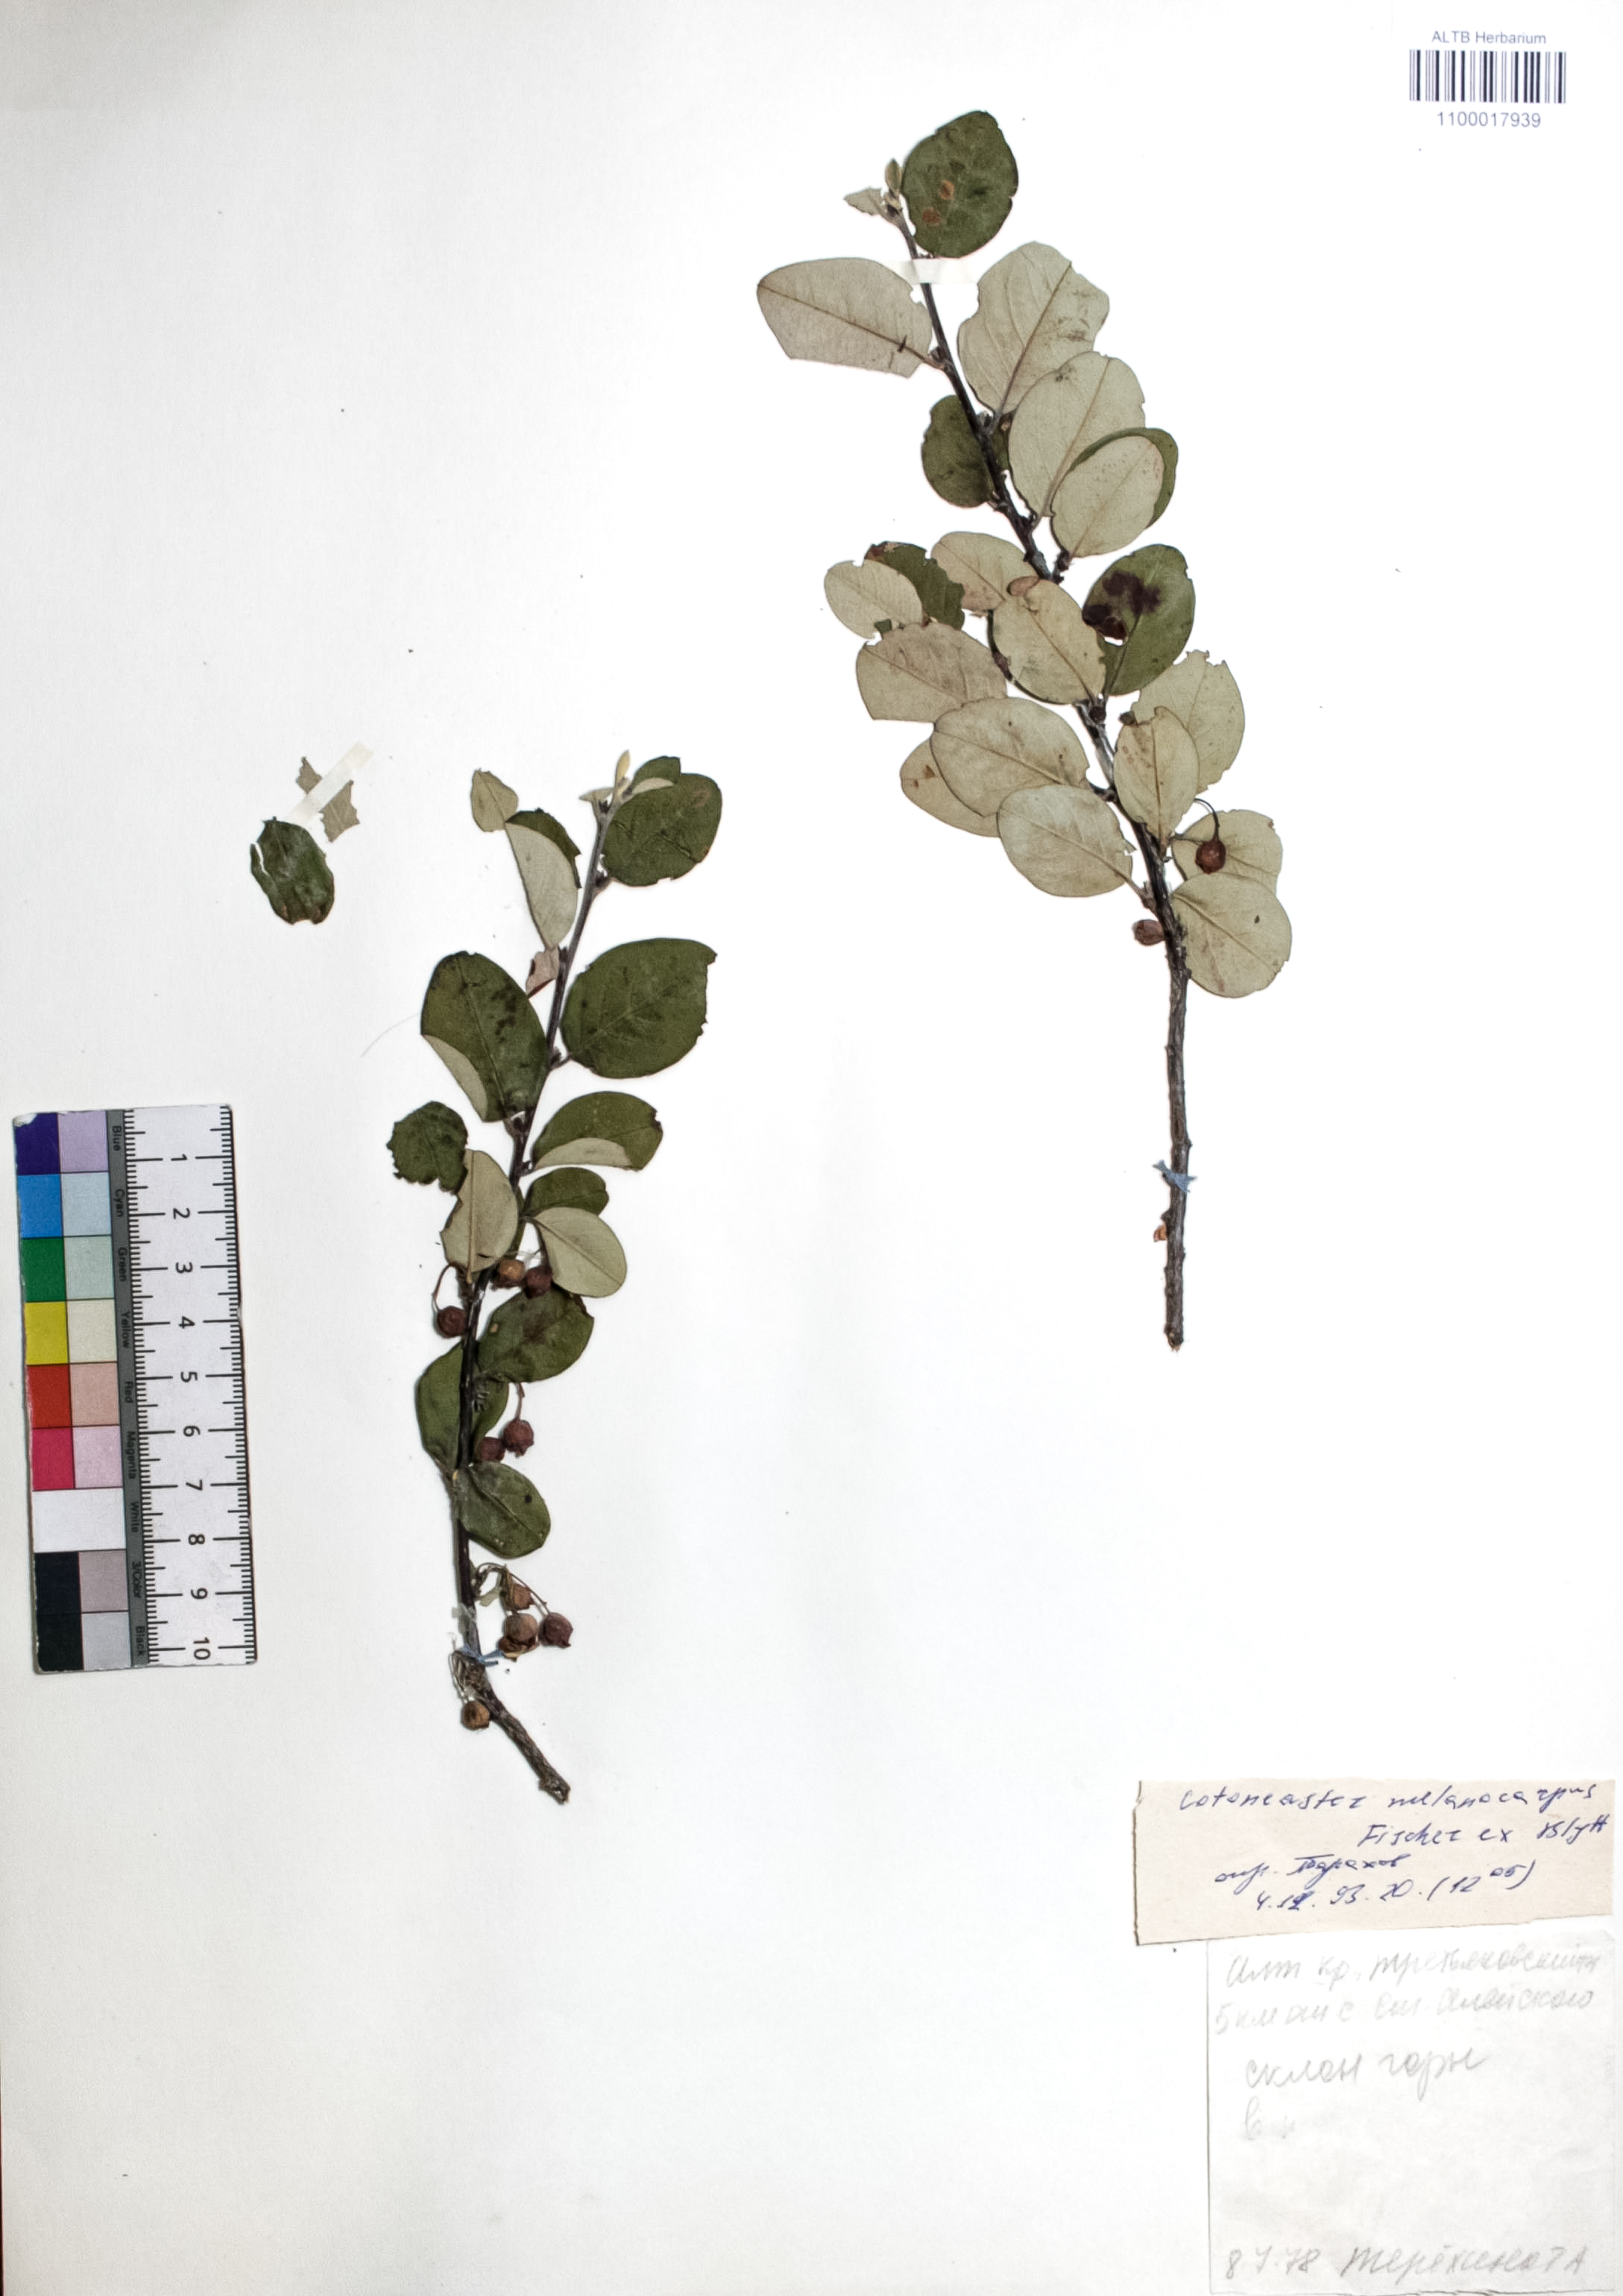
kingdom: Plantae
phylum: Tracheophyta
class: Magnoliopsida
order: Rosales
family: Rosaceae
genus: Cotoneaster
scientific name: Cotoneaster niger
